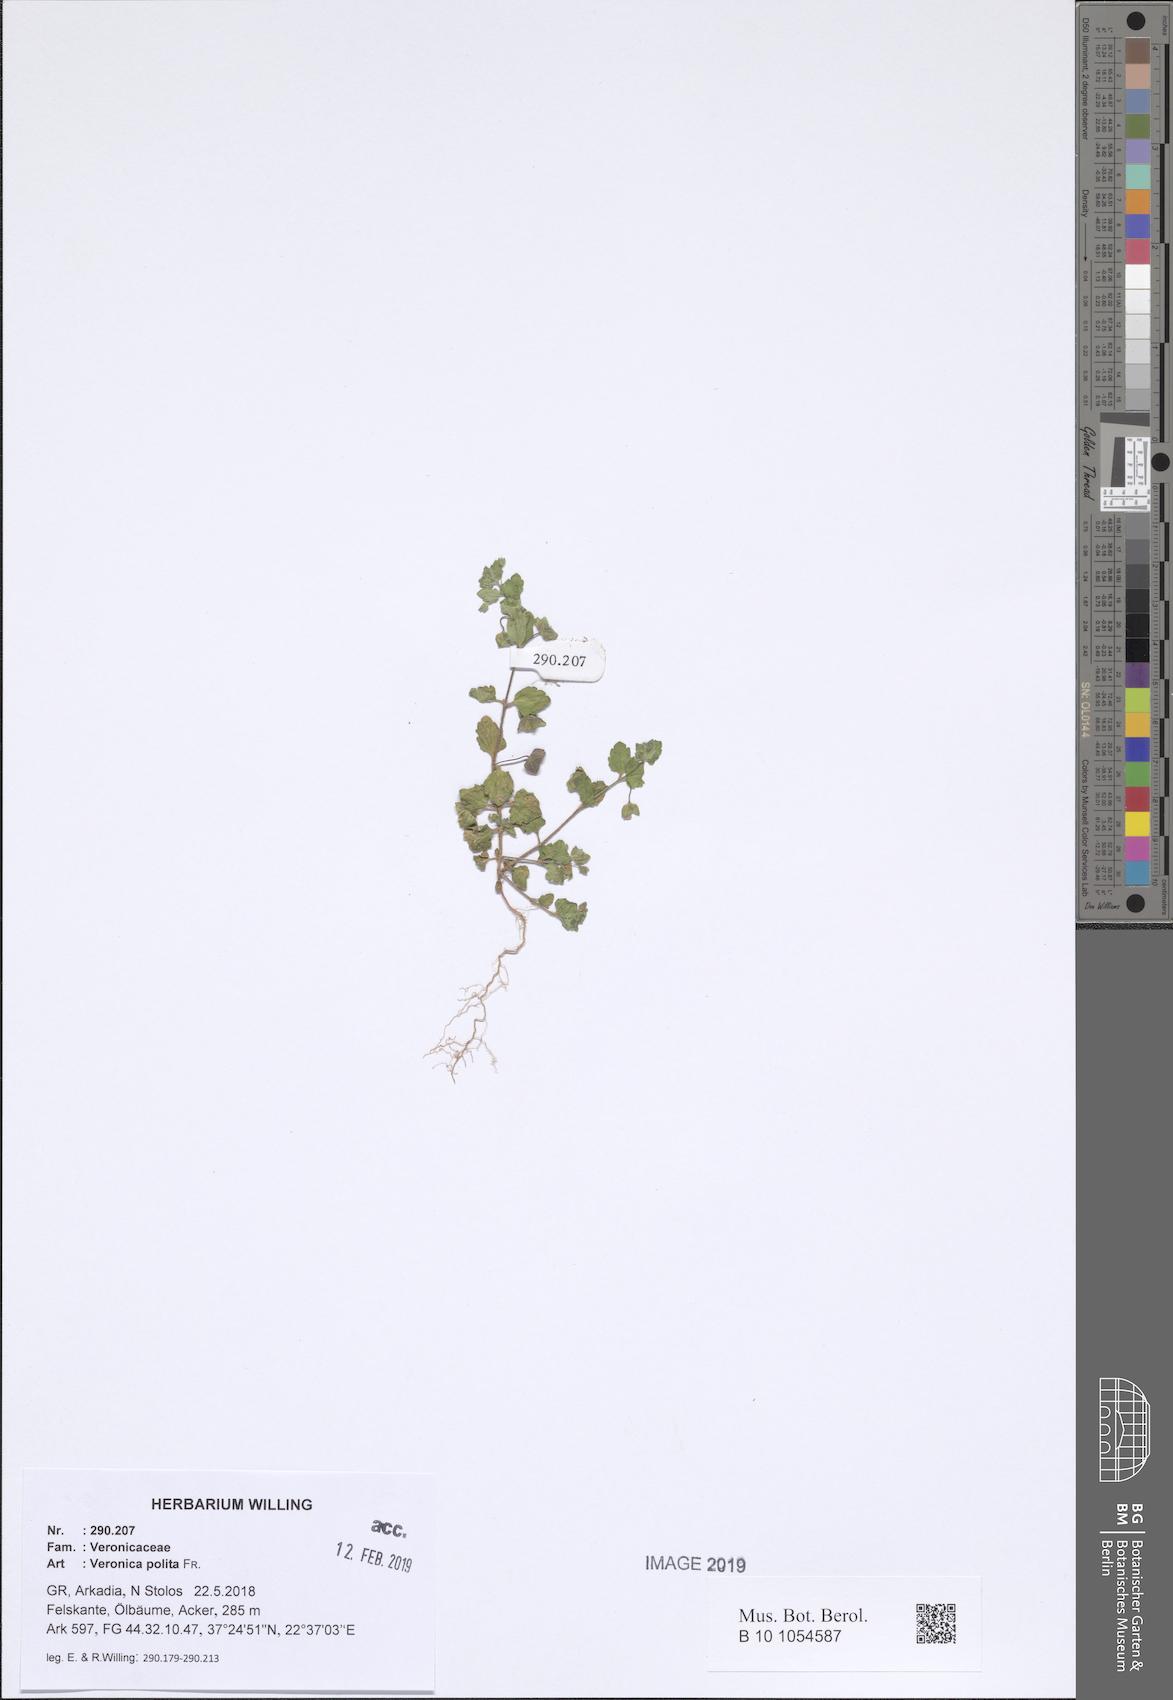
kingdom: Plantae
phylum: Tracheophyta
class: Magnoliopsida
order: Lamiales
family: Plantaginaceae
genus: Veronica
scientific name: Veronica polita
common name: Grey field-speedwell
